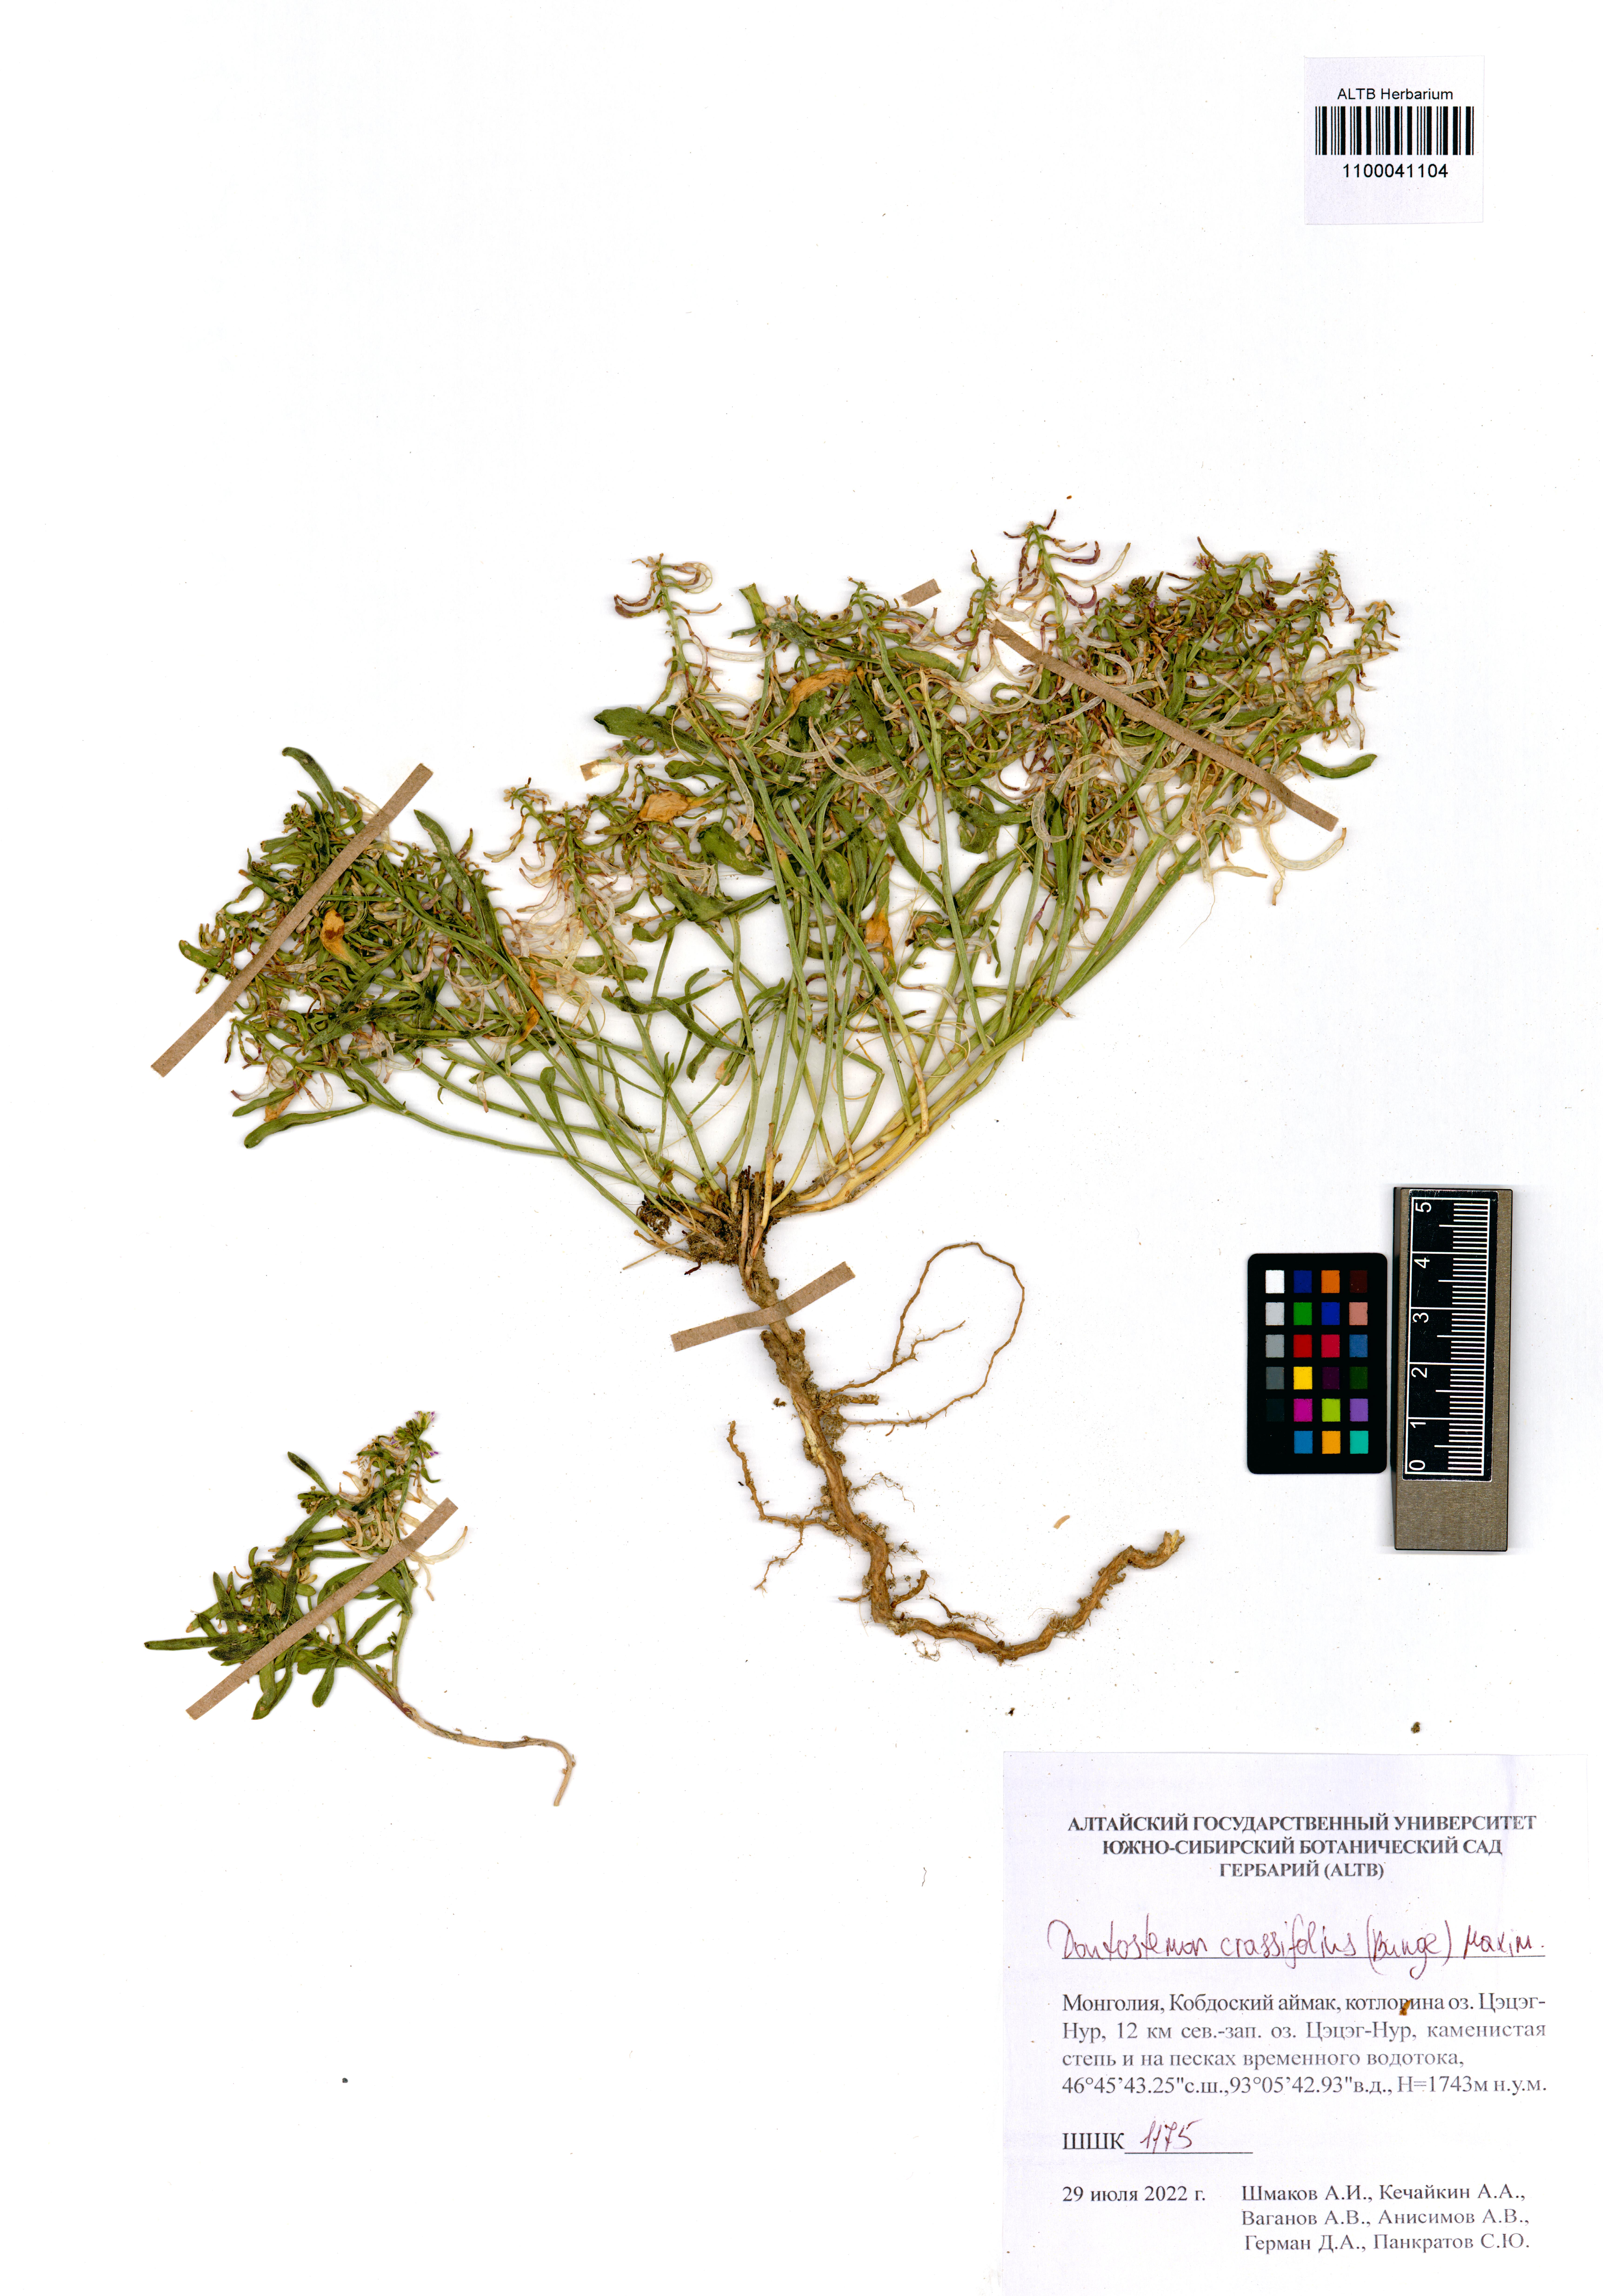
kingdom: Plantae
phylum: Tracheophyta
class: Magnoliopsida
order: Brassicales
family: Brassicaceae
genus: Dontostemon
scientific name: Dontostemon crassifolius
